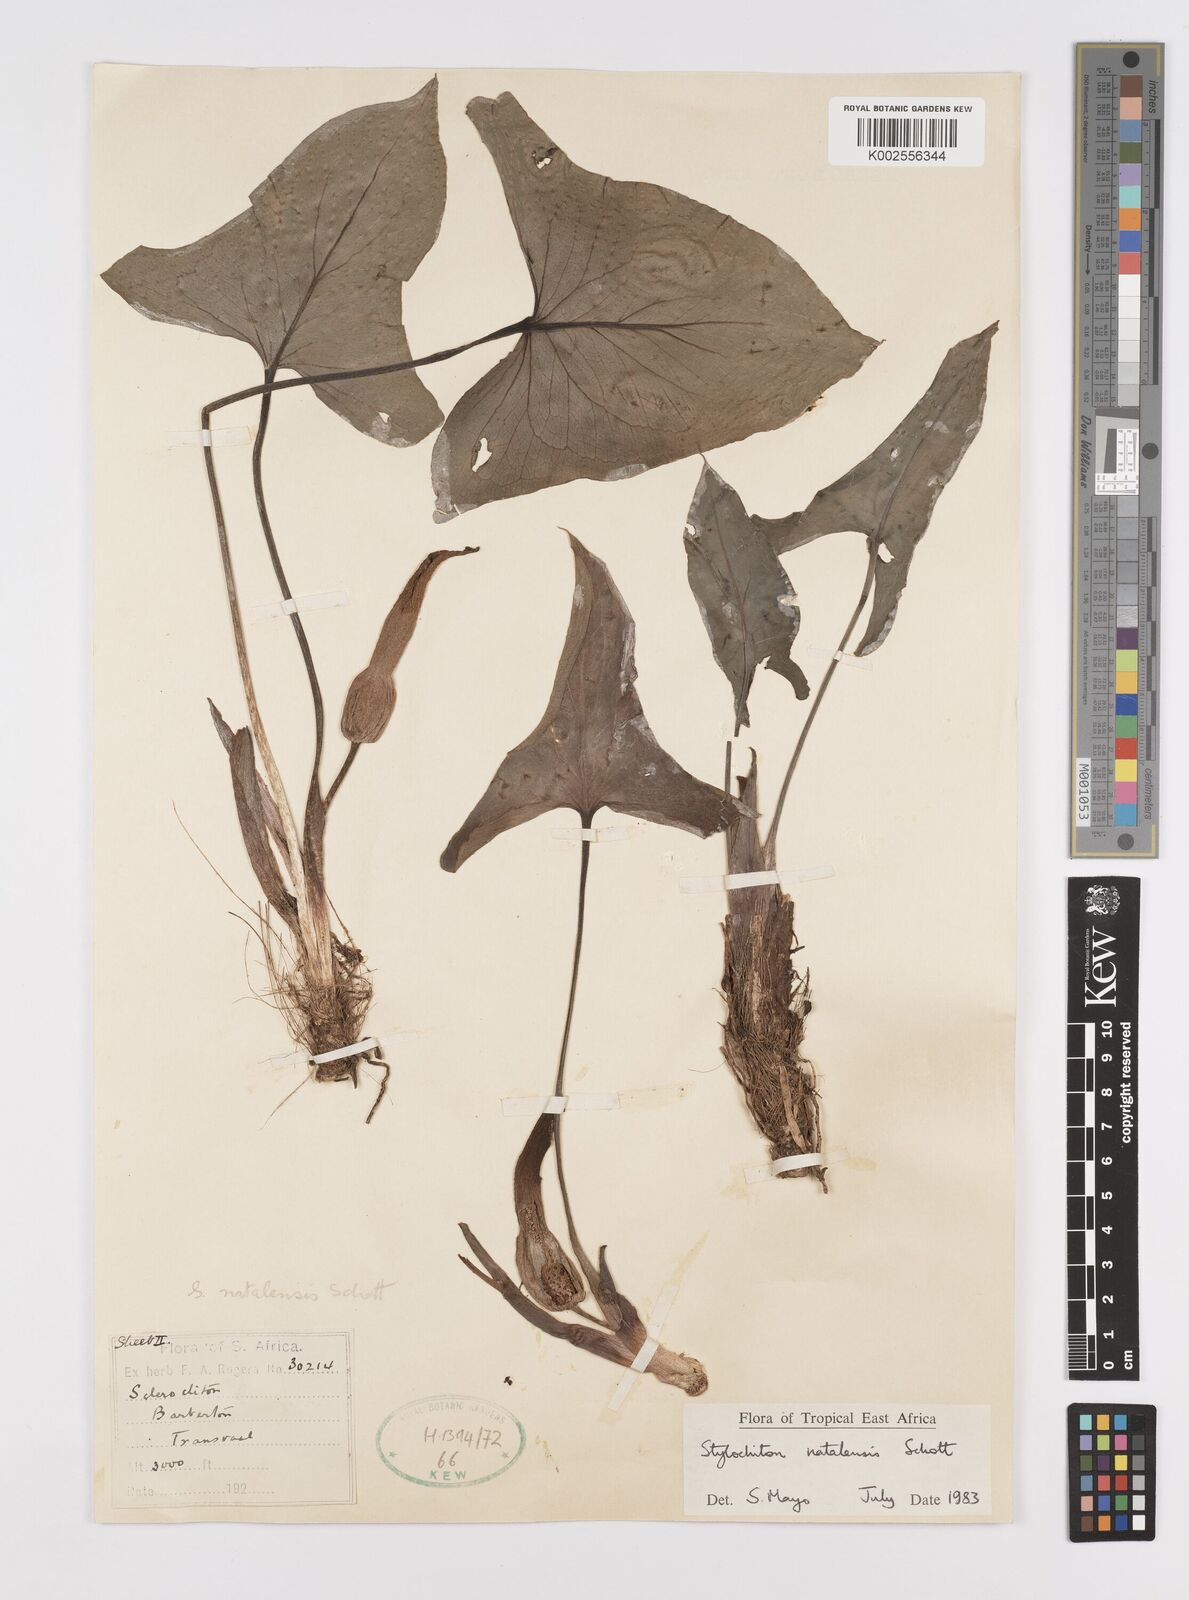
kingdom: Plantae
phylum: Tracheophyta
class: Liliopsida
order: Alismatales
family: Araceae
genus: Stylochaeton
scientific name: Stylochaeton natalense
